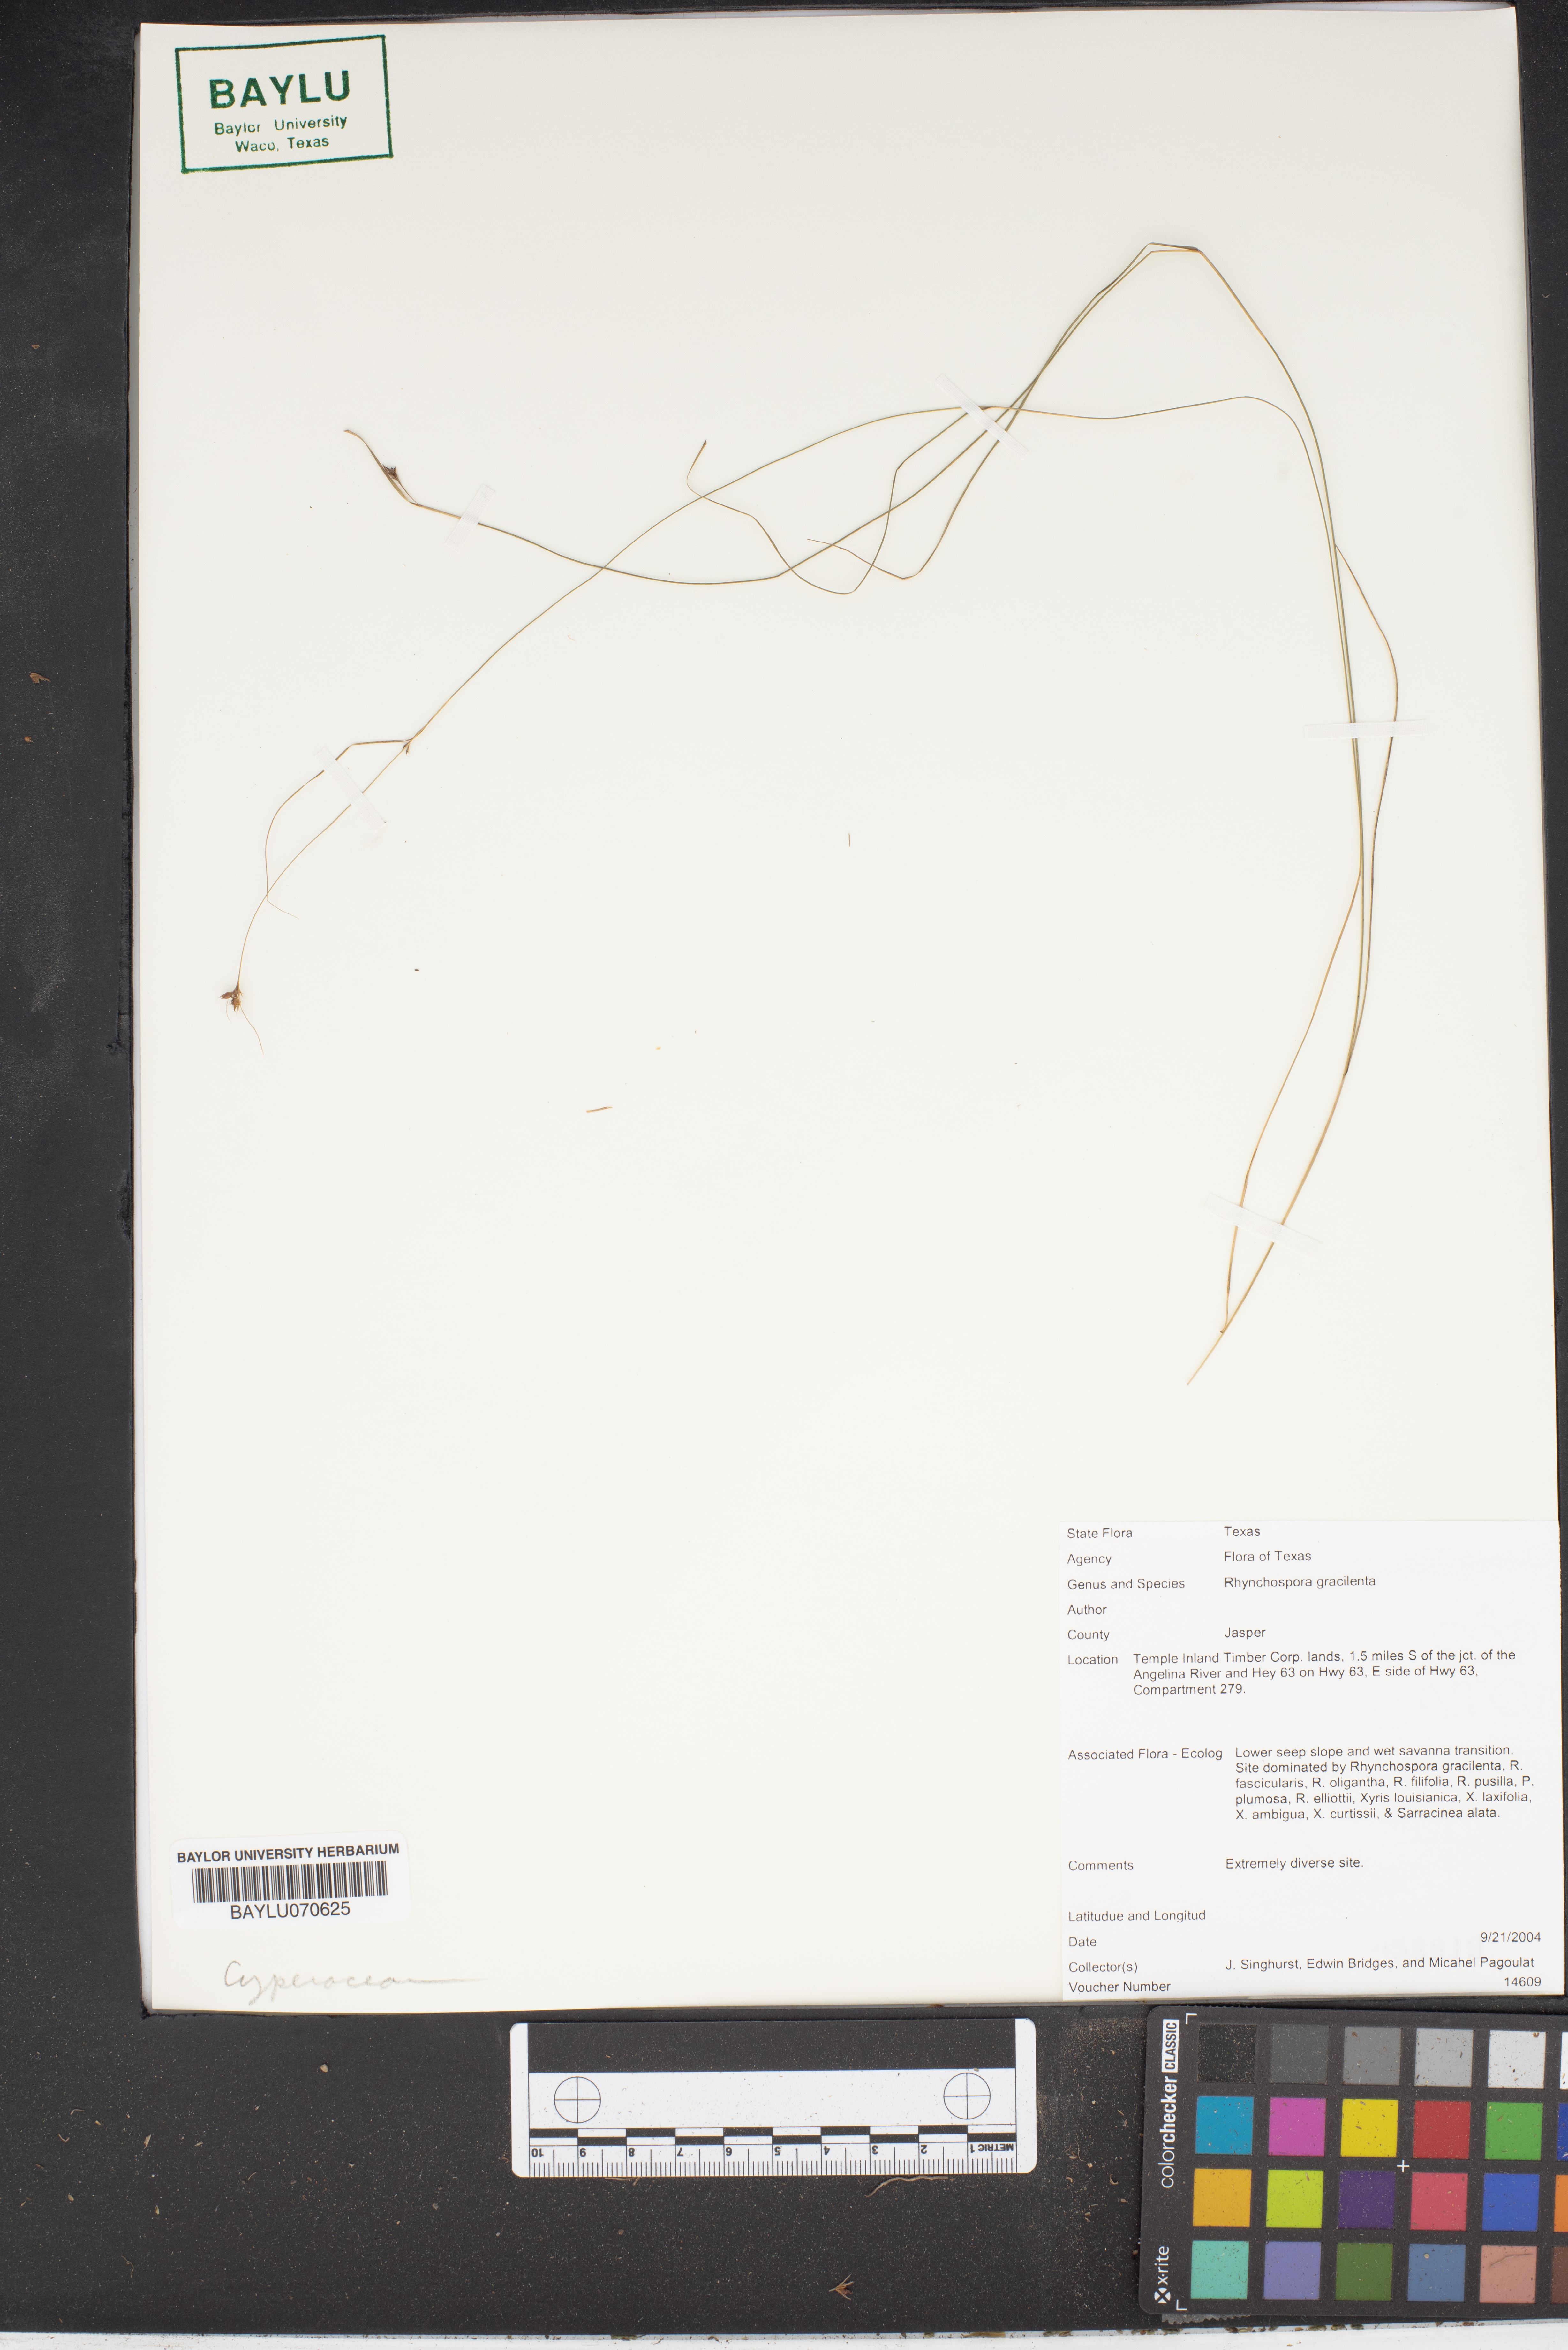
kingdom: Plantae
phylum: Tracheophyta
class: Liliopsida
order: Poales
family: Cyperaceae
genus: Rhynchospora
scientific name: Rhynchospora gracilenta
